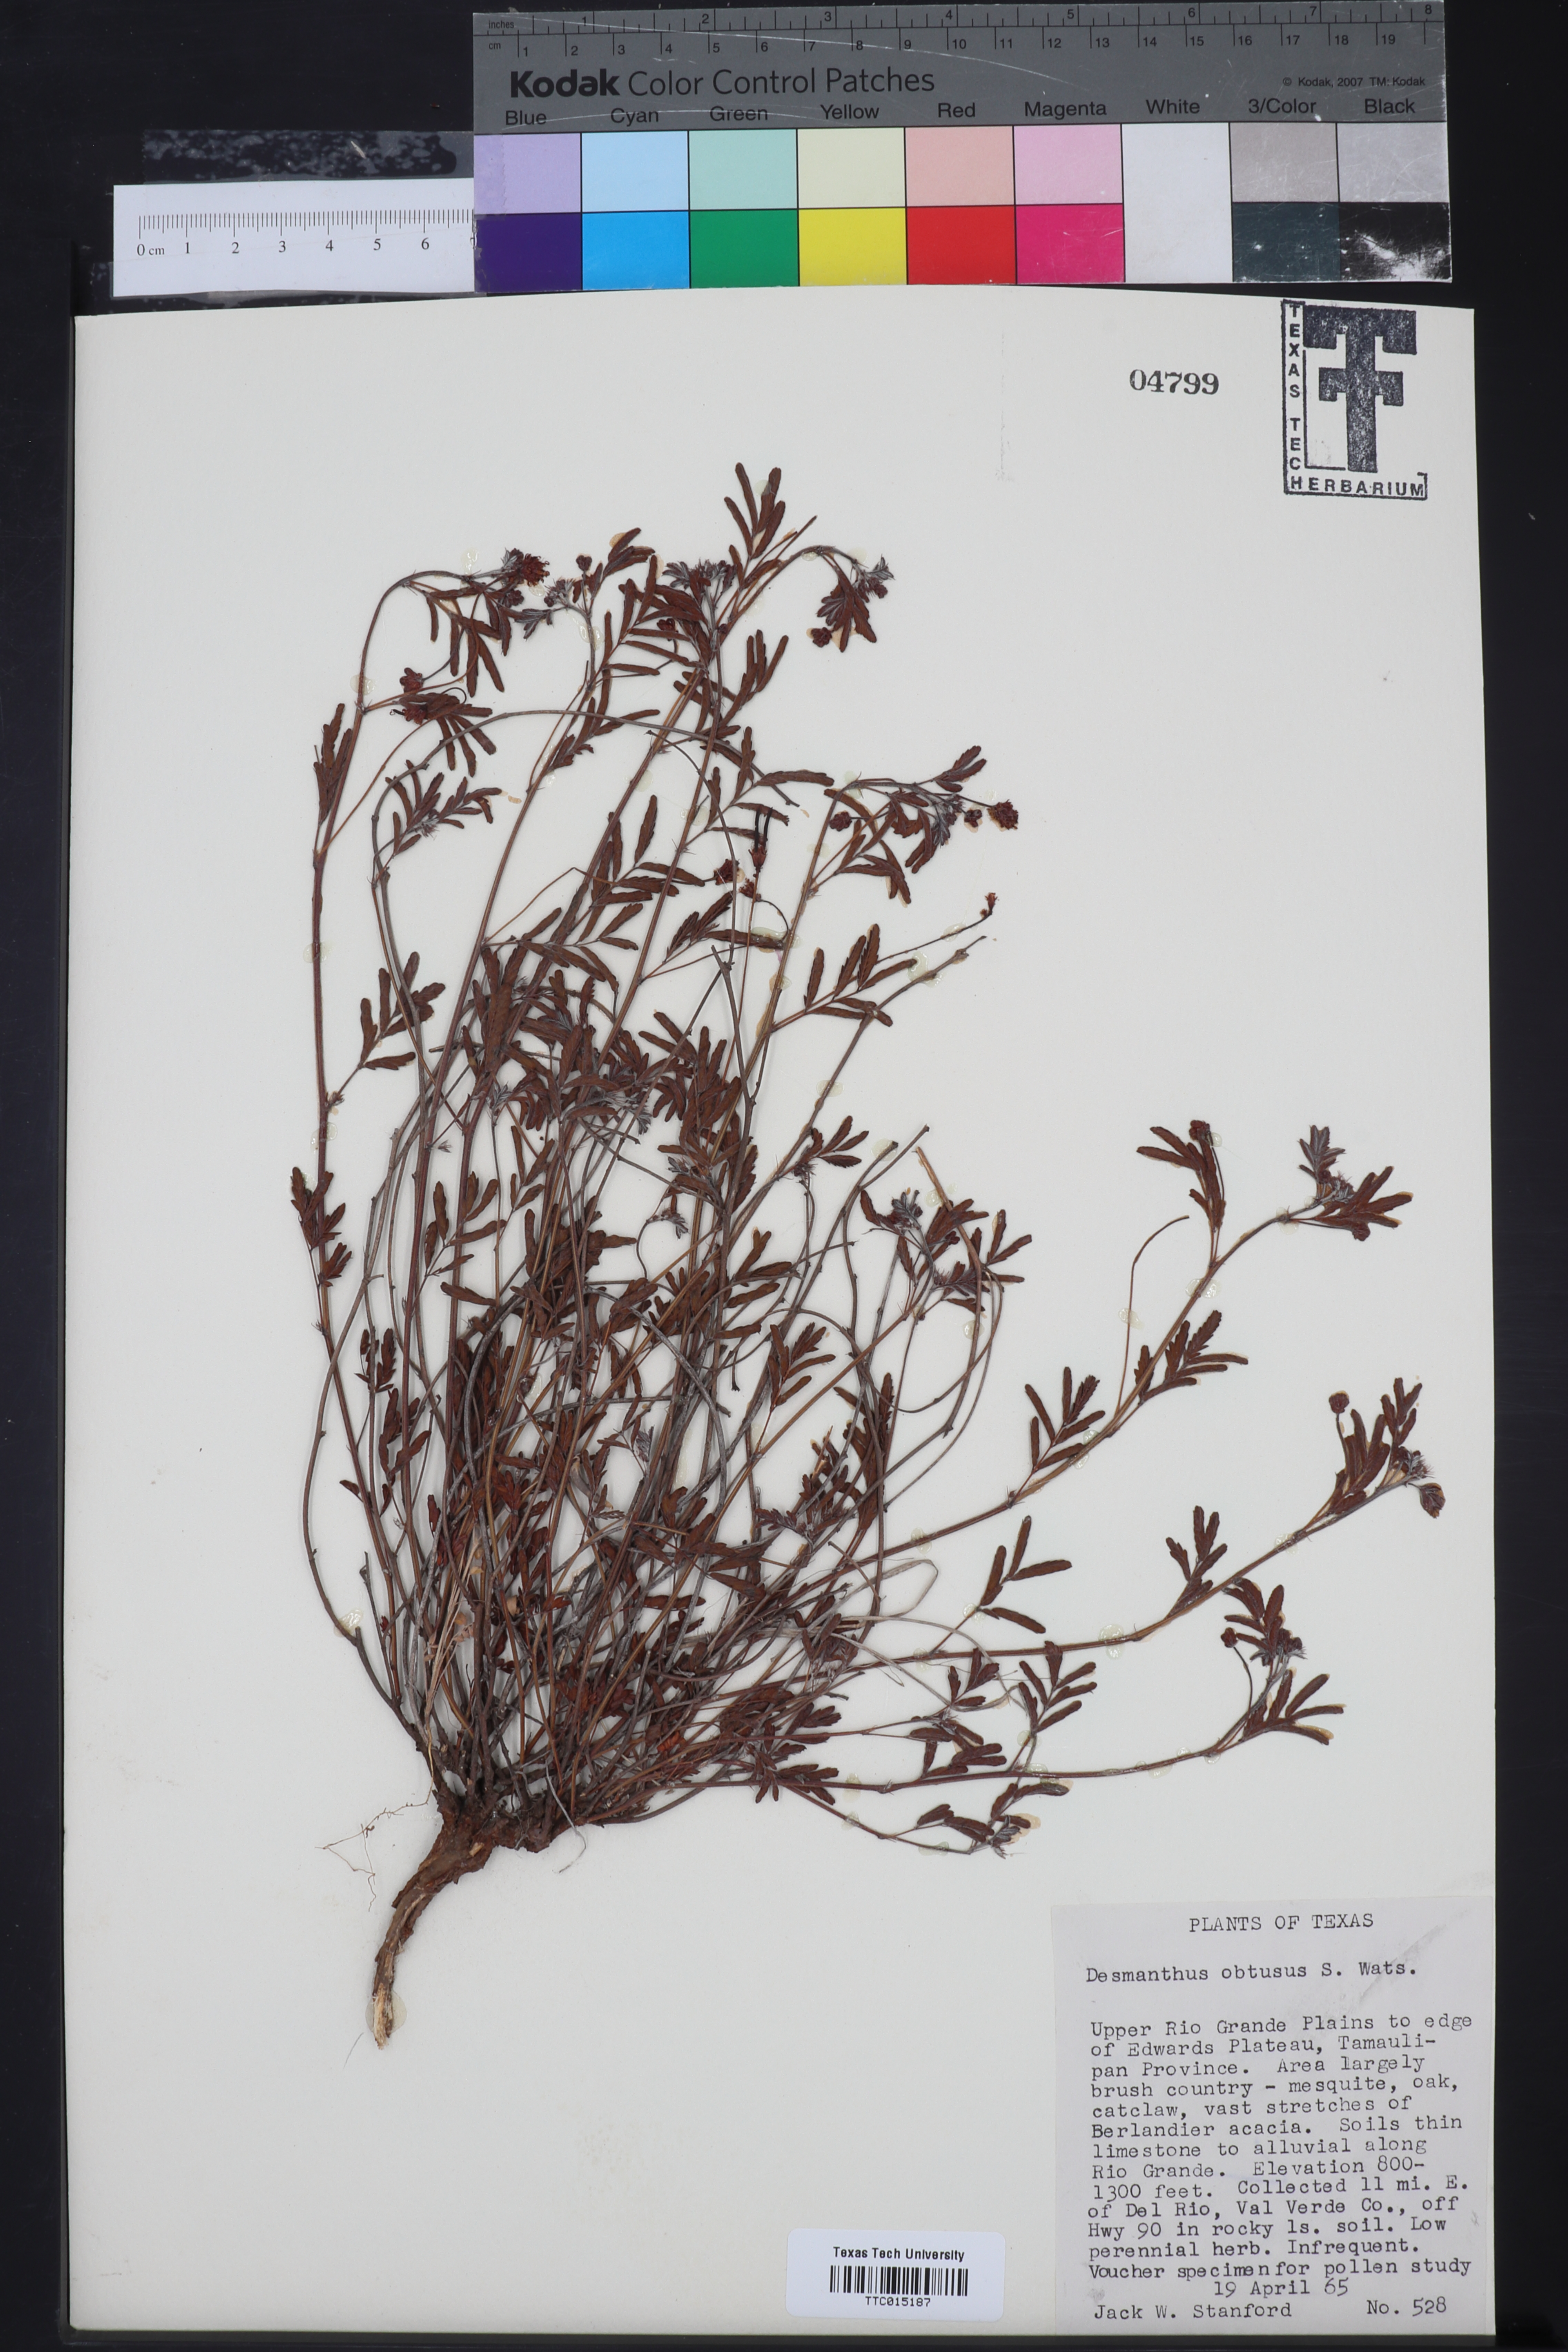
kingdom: Plantae
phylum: Tracheophyta
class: Magnoliopsida
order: Fabales
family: Fabaceae
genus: Desmanthus
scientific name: Desmanthus obtusus
